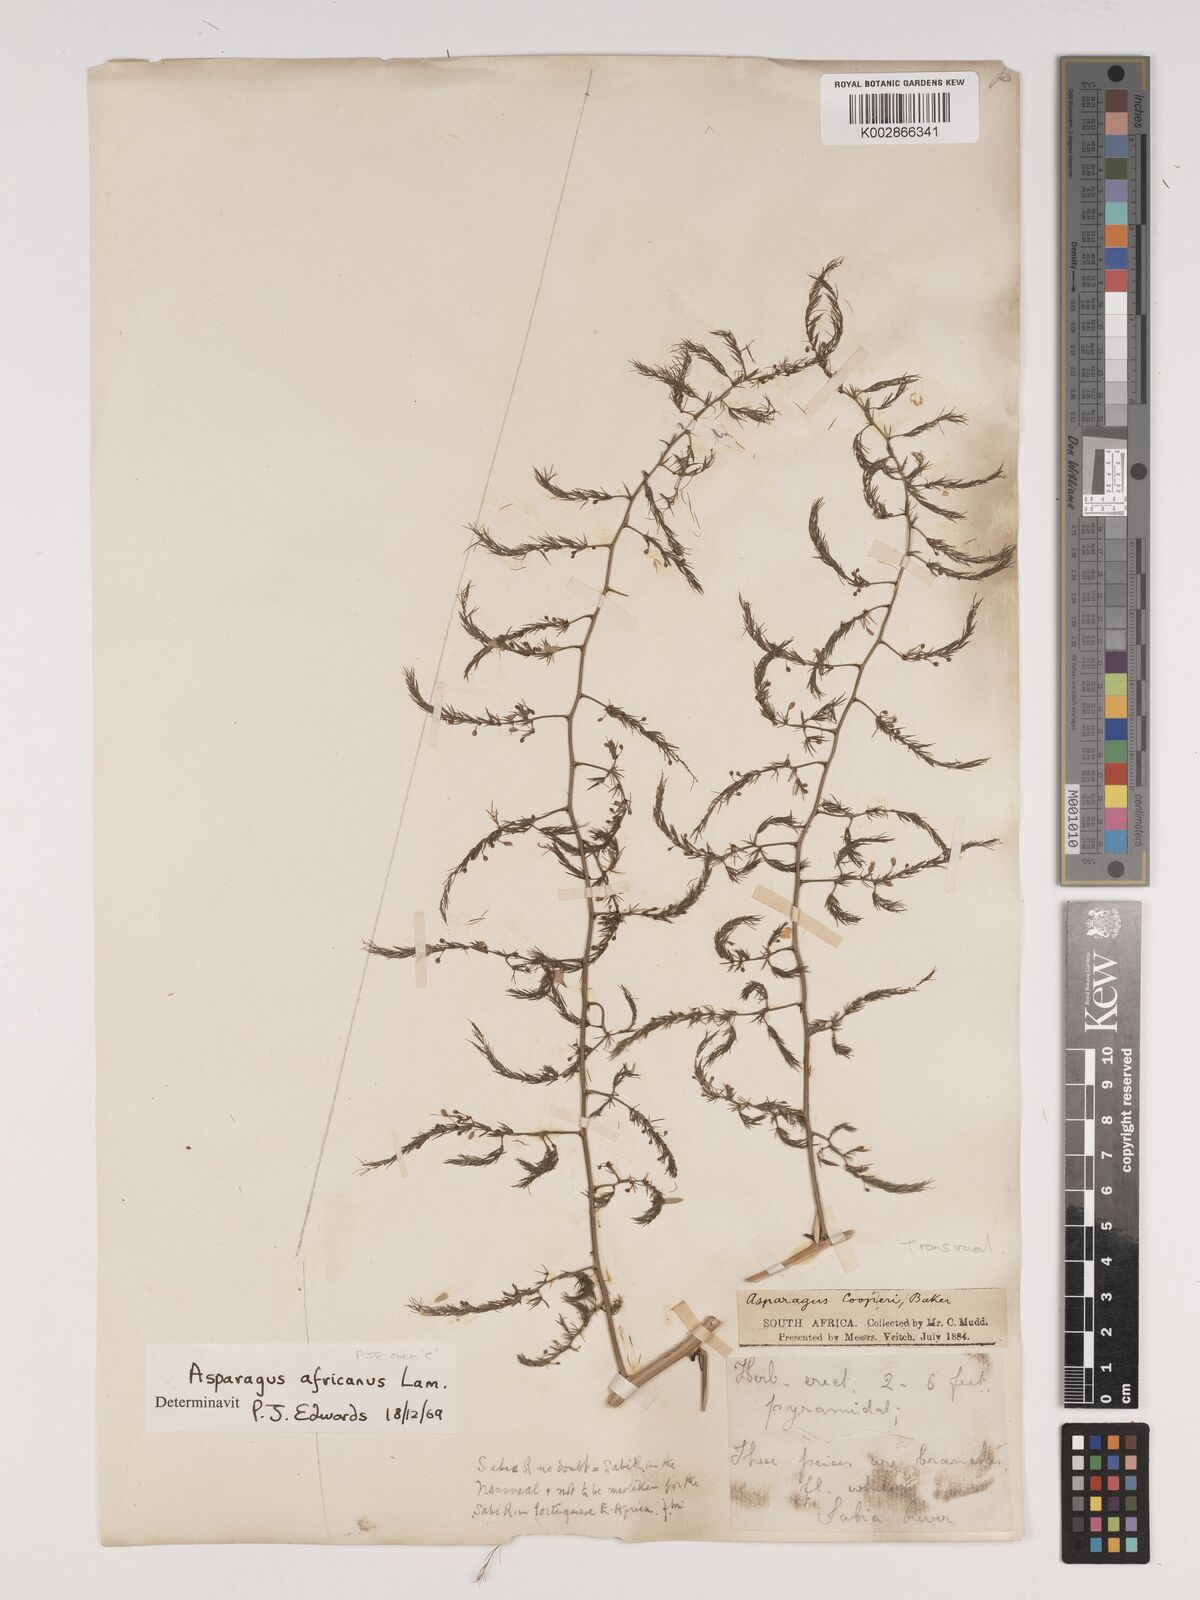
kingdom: Plantae
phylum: Tracheophyta
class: Liliopsida
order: Asparagales
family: Asparagaceae
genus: Asparagus
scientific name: Asparagus africanus
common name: Asparagus-fern
